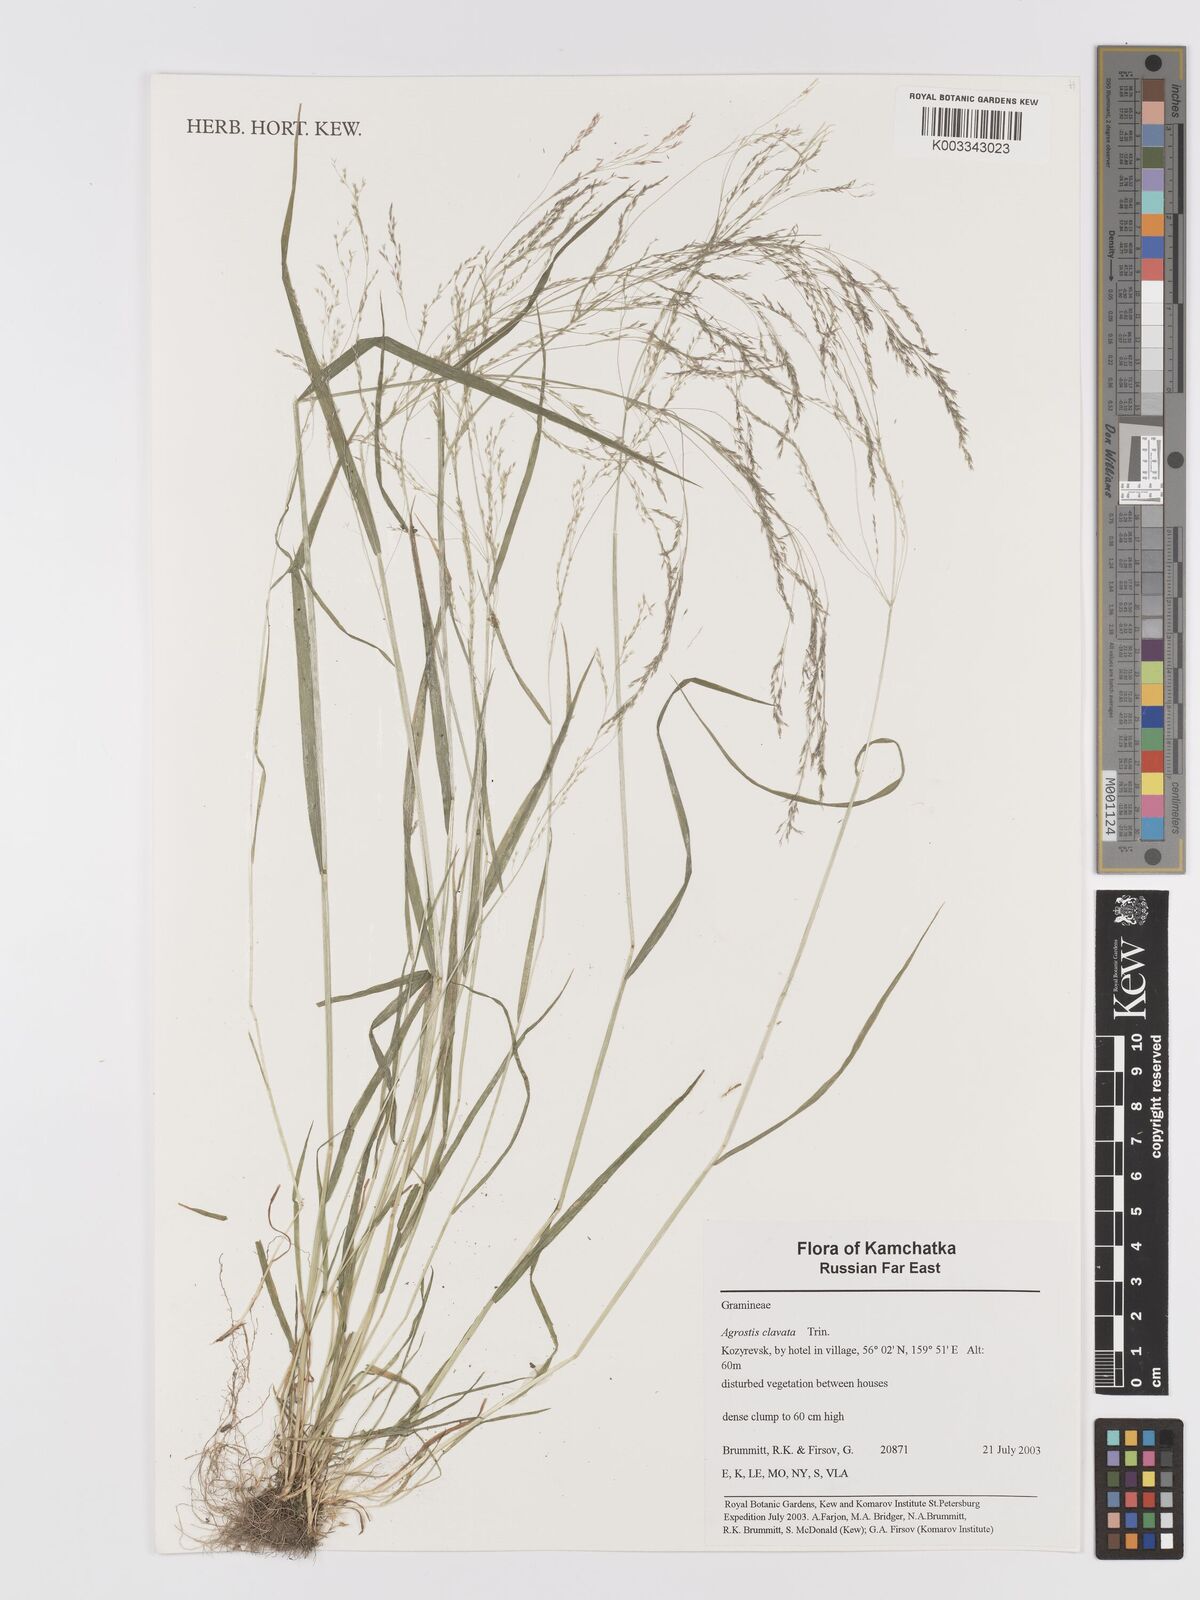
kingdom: Plantae
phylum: Tracheophyta
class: Liliopsida
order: Poales
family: Poaceae
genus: Agrostis
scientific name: Agrostis clavata
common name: Clavate bent
